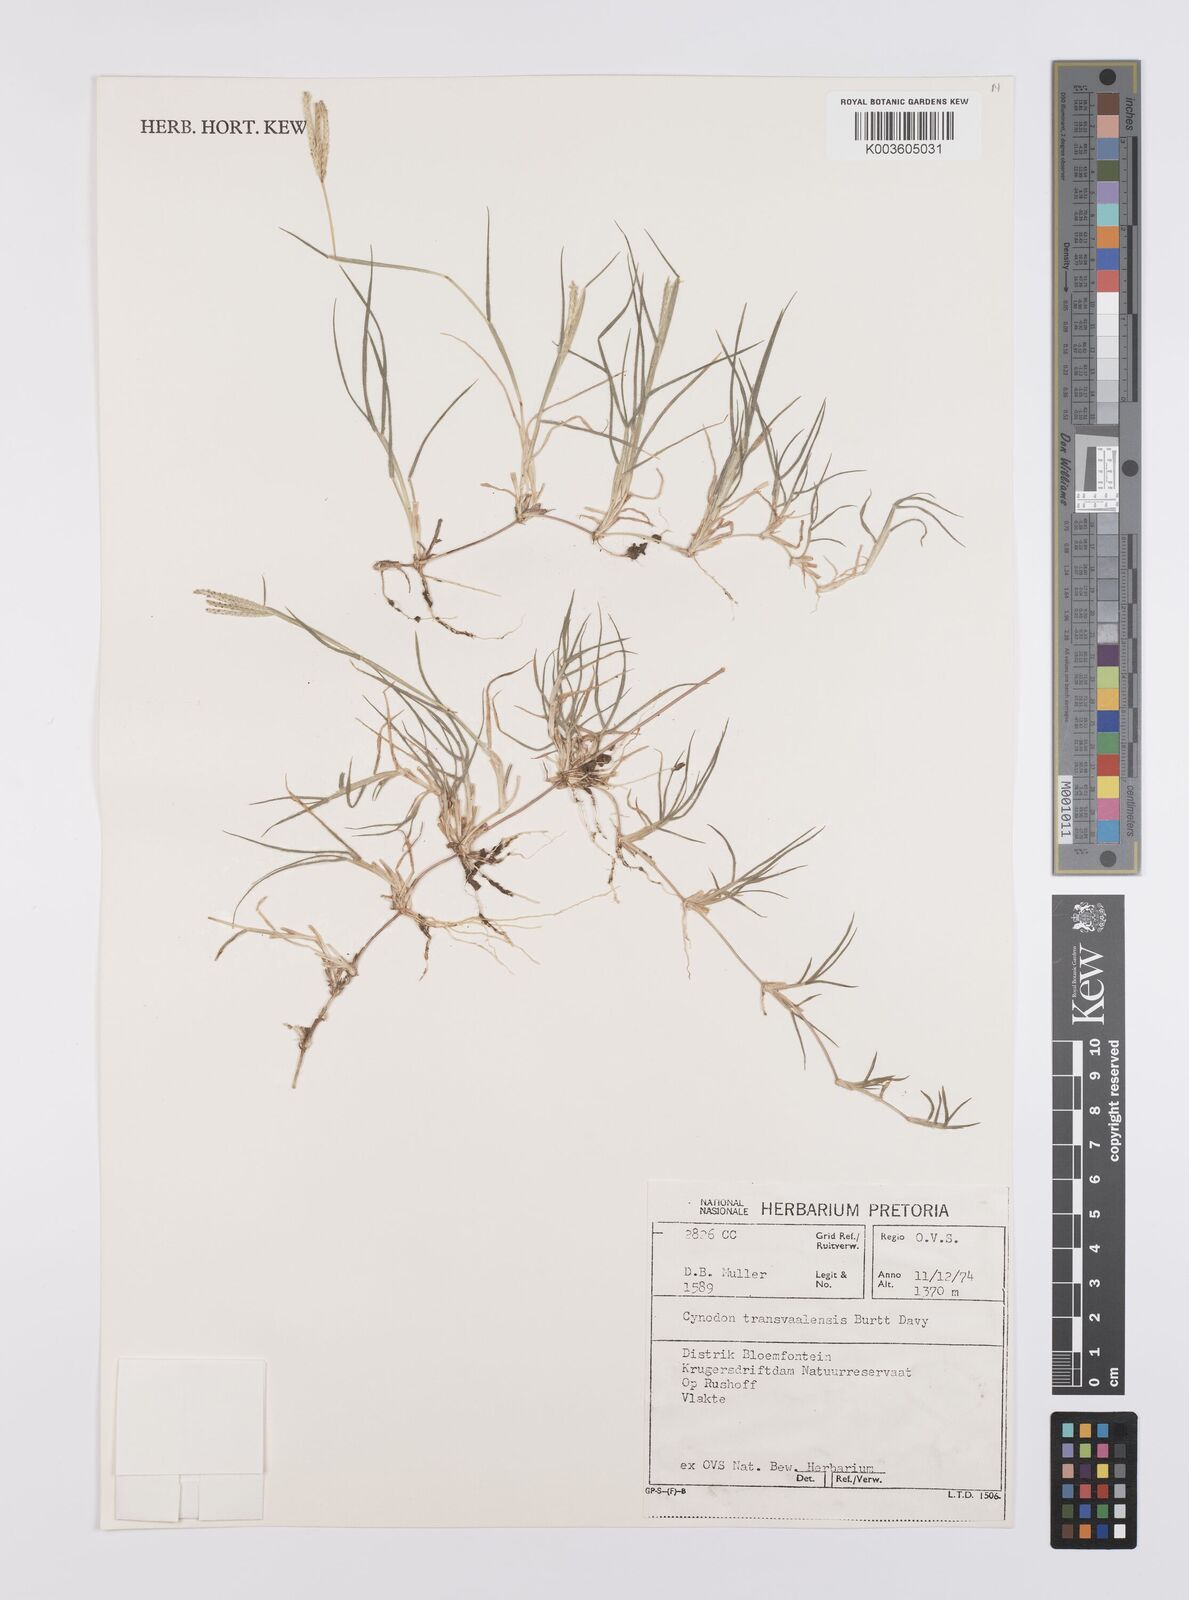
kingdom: Plantae
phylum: Tracheophyta
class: Liliopsida
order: Poales
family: Poaceae
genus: Cynodon
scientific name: Cynodon transvaalensis
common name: African bermuda grass
